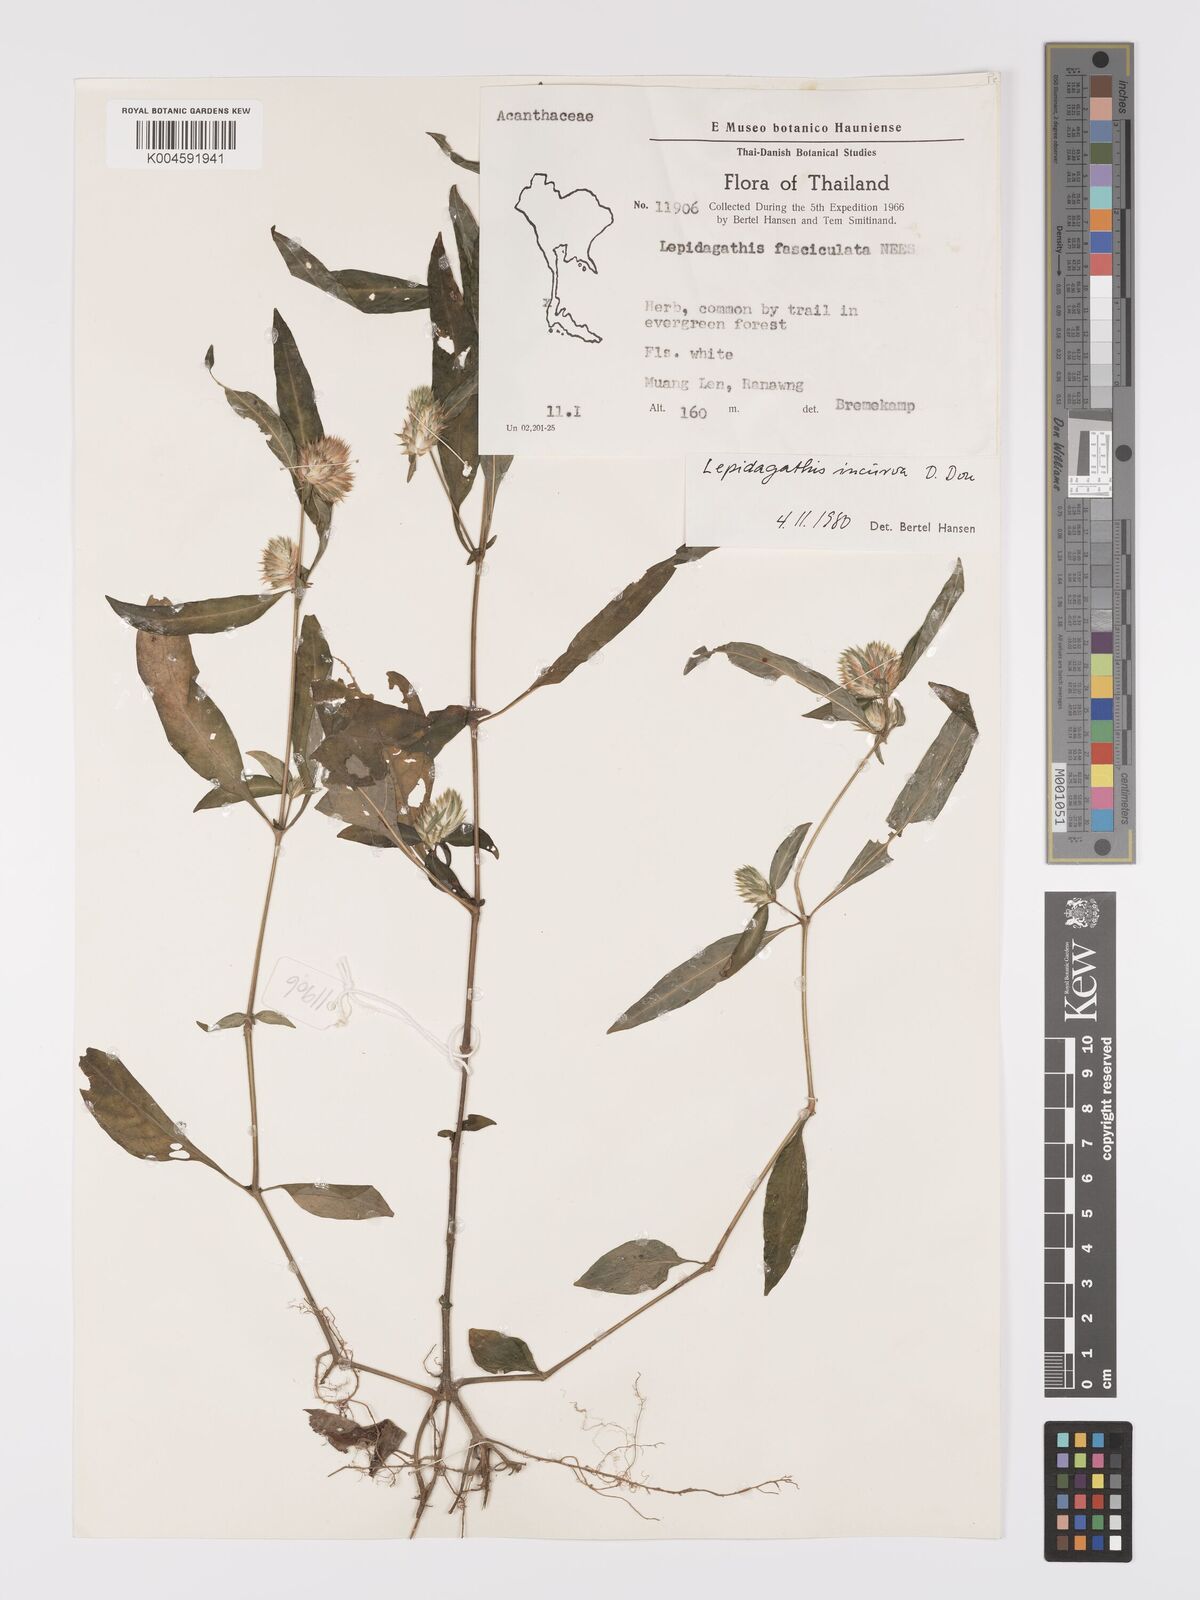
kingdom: Plantae
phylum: Tracheophyta
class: Magnoliopsida
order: Lamiales
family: Acanthaceae
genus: Lepidagathis
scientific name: Lepidagathis incurva
